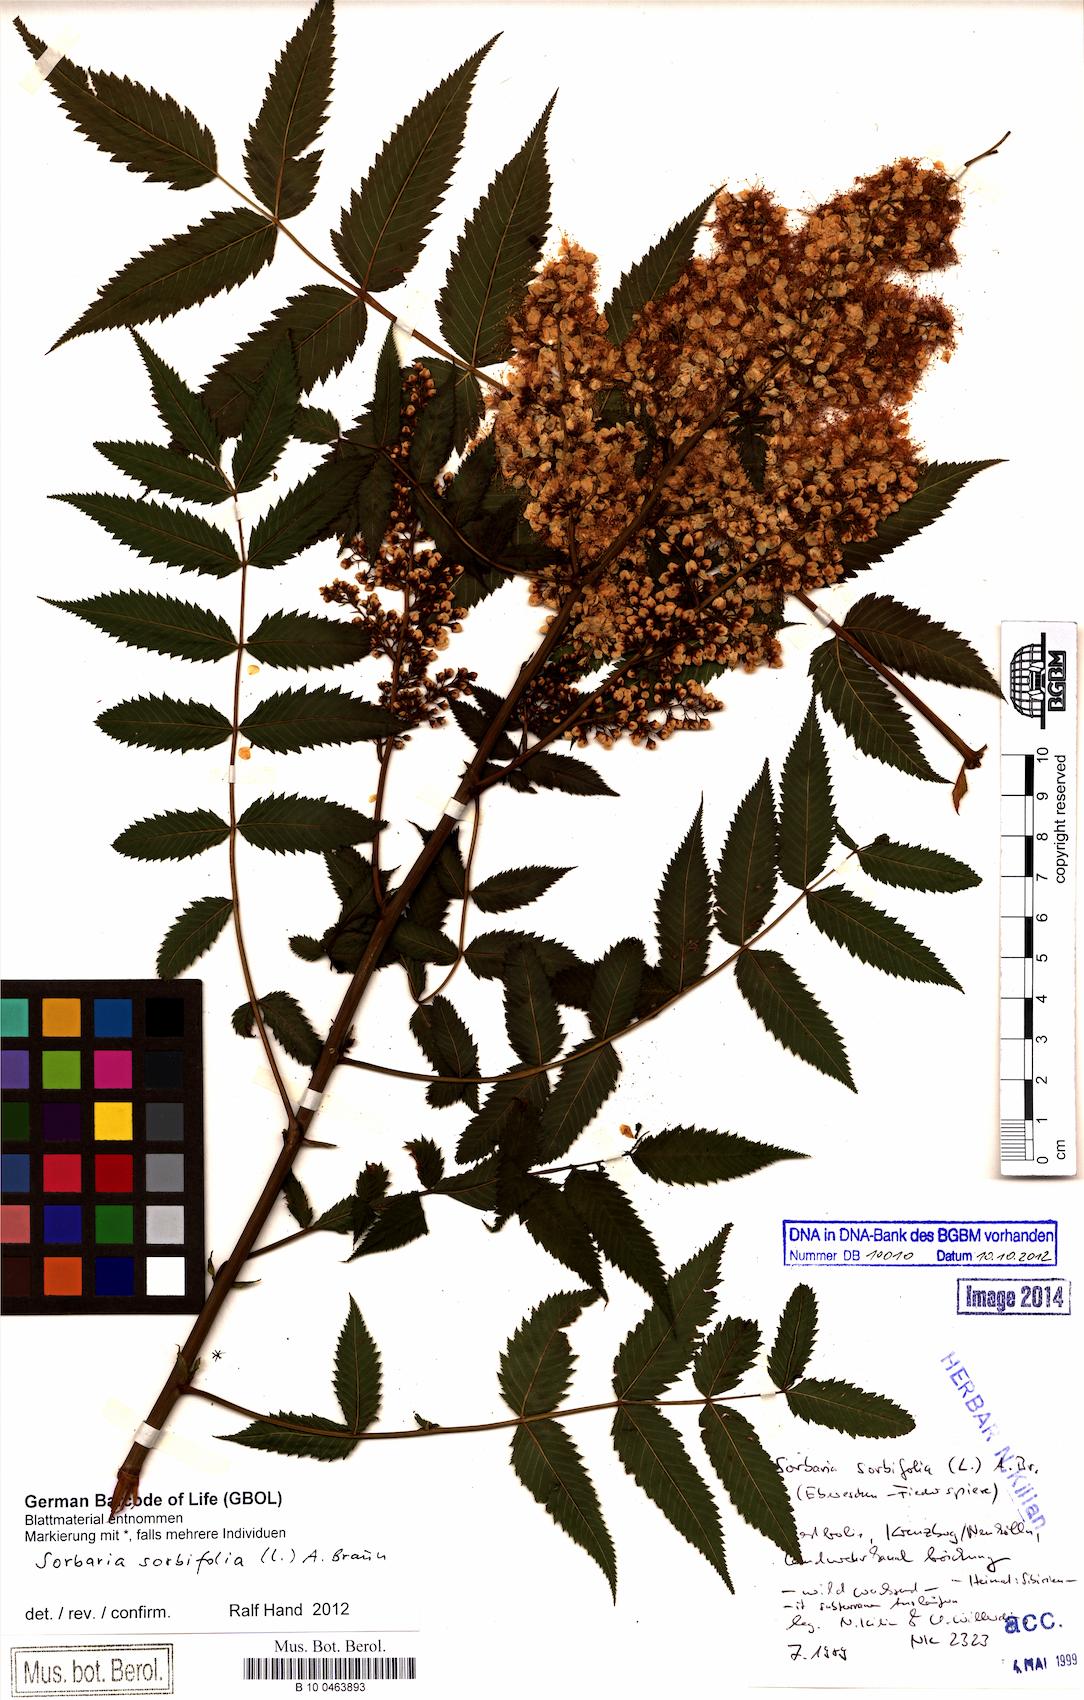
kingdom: Plantae
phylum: Tracheophyta
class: Magnoliopsida
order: Rosales
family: Rosaceae
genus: Sorbaria
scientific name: Sorbaria sorbifolia
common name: False spiraea
